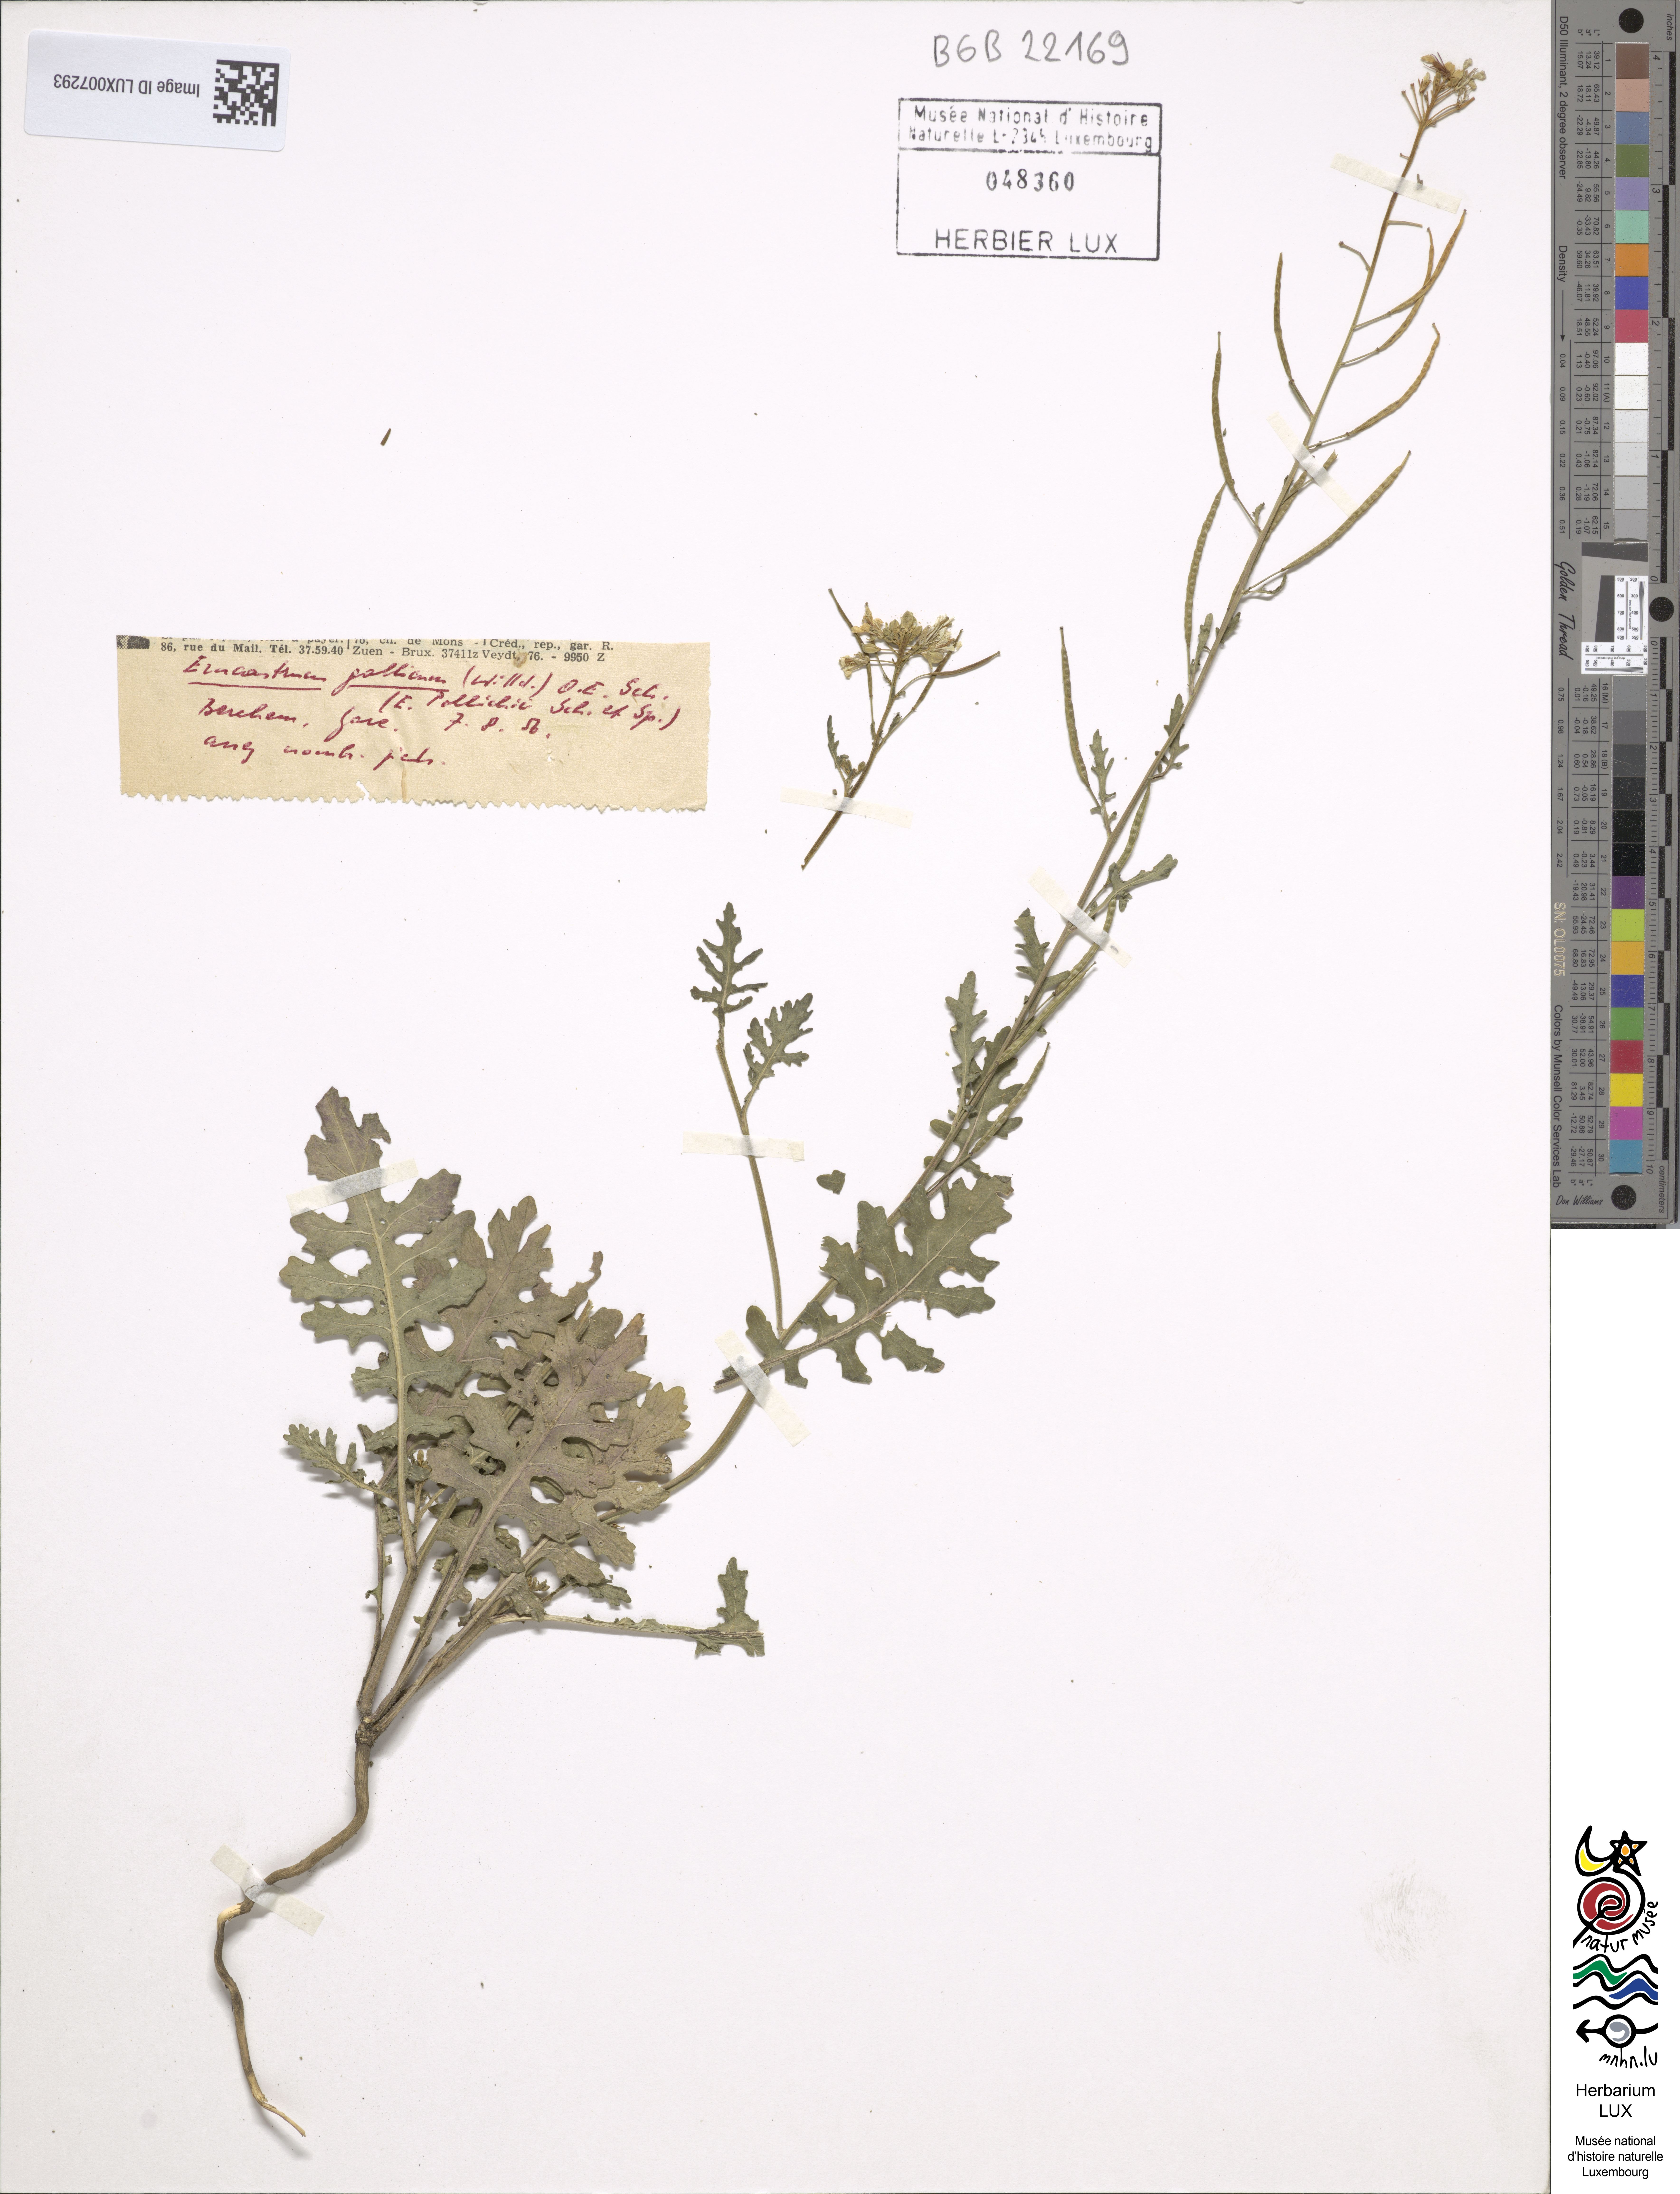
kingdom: Plantae
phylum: Tracheophyta
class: Magnoliopsida
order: Brassicales
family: Brassicaceae
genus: Erucastrum
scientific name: Erucastrum gallicum
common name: Hairy rocket
